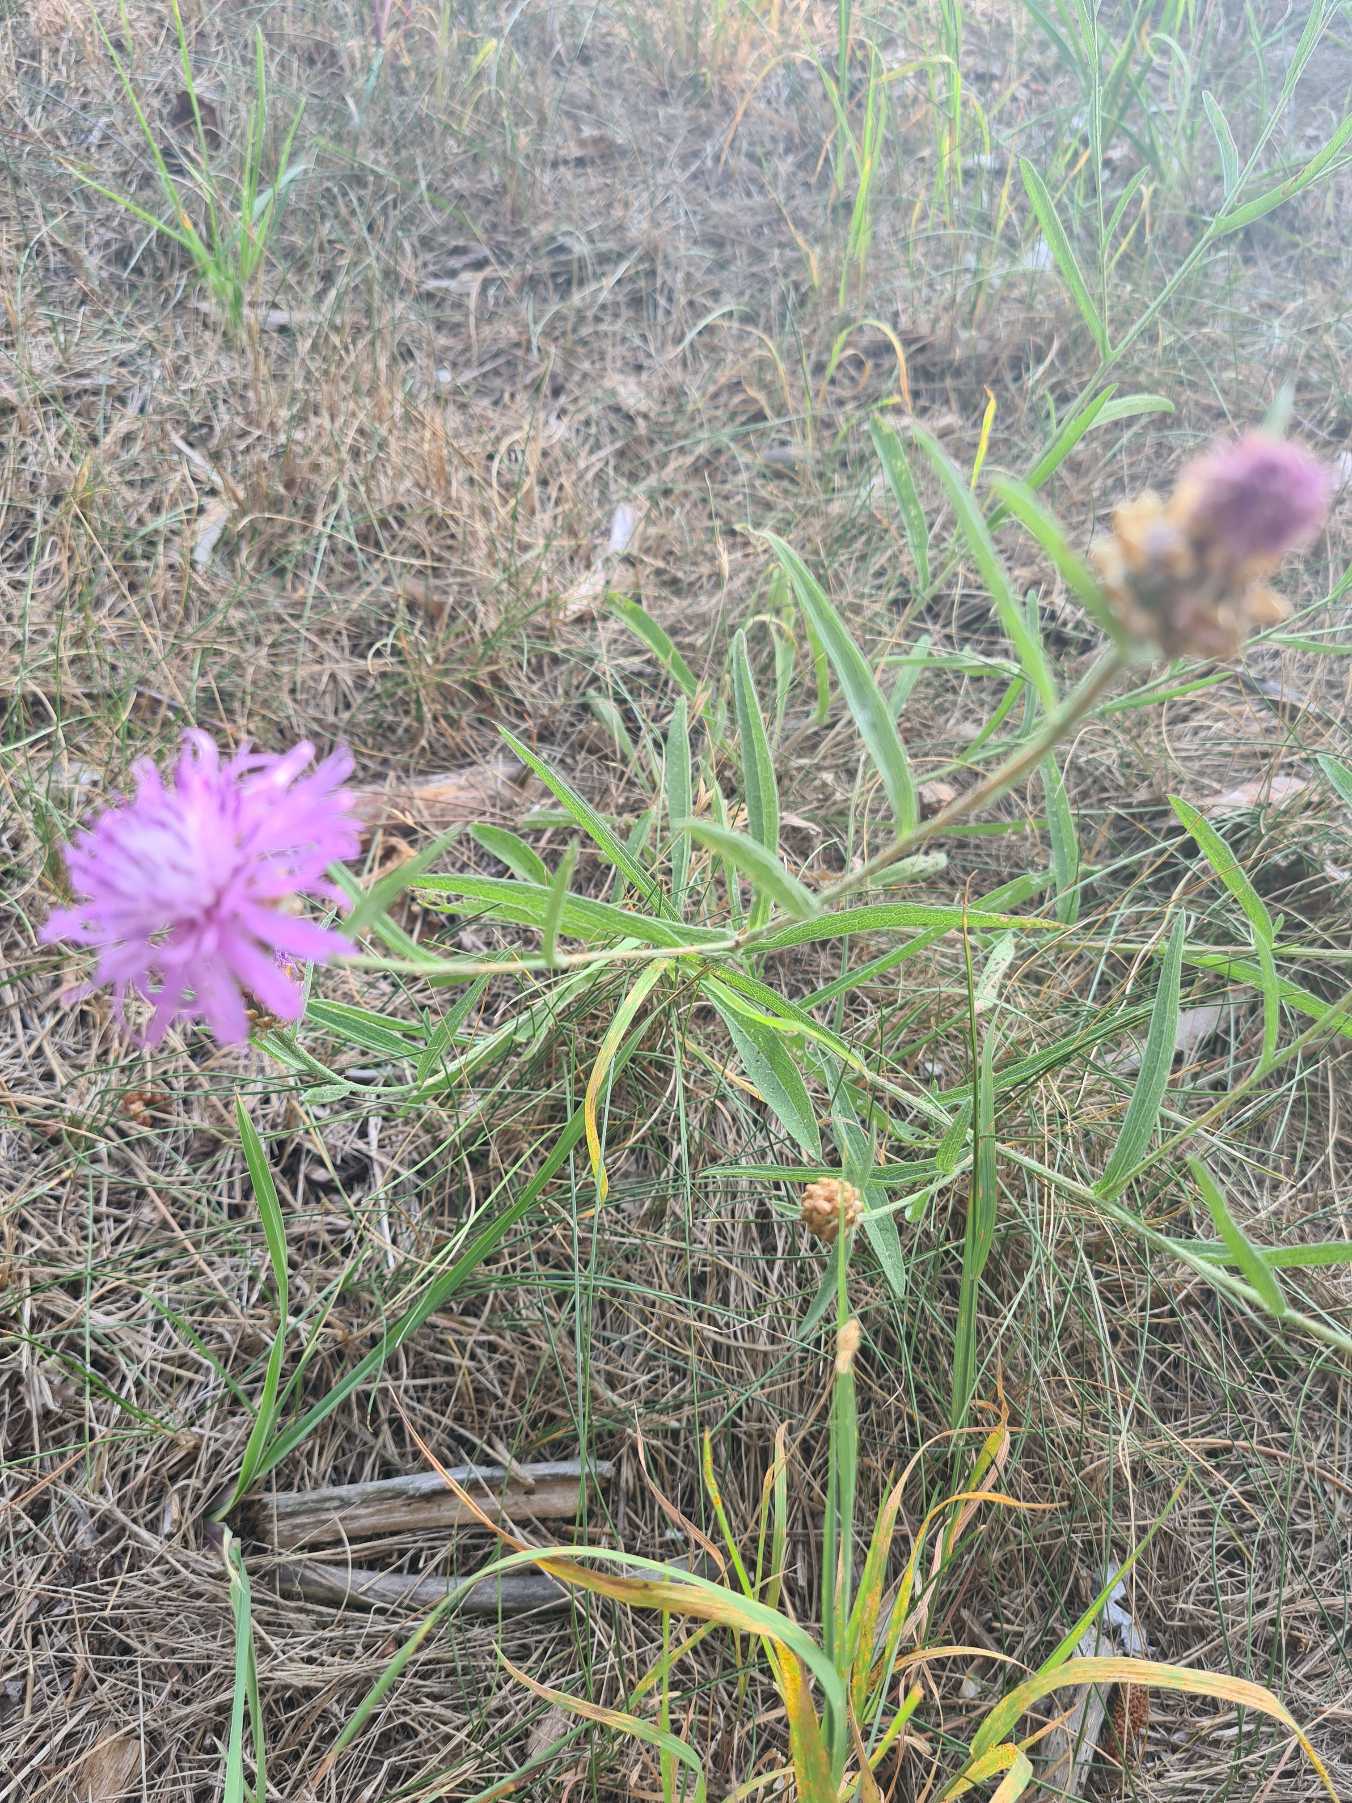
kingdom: Plantae
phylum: Tracheophyta
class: Magnoliopsida
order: Asterales
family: Asteraceae
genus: Centaurea
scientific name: Centaurea jacea
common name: Almindelig knopurt
